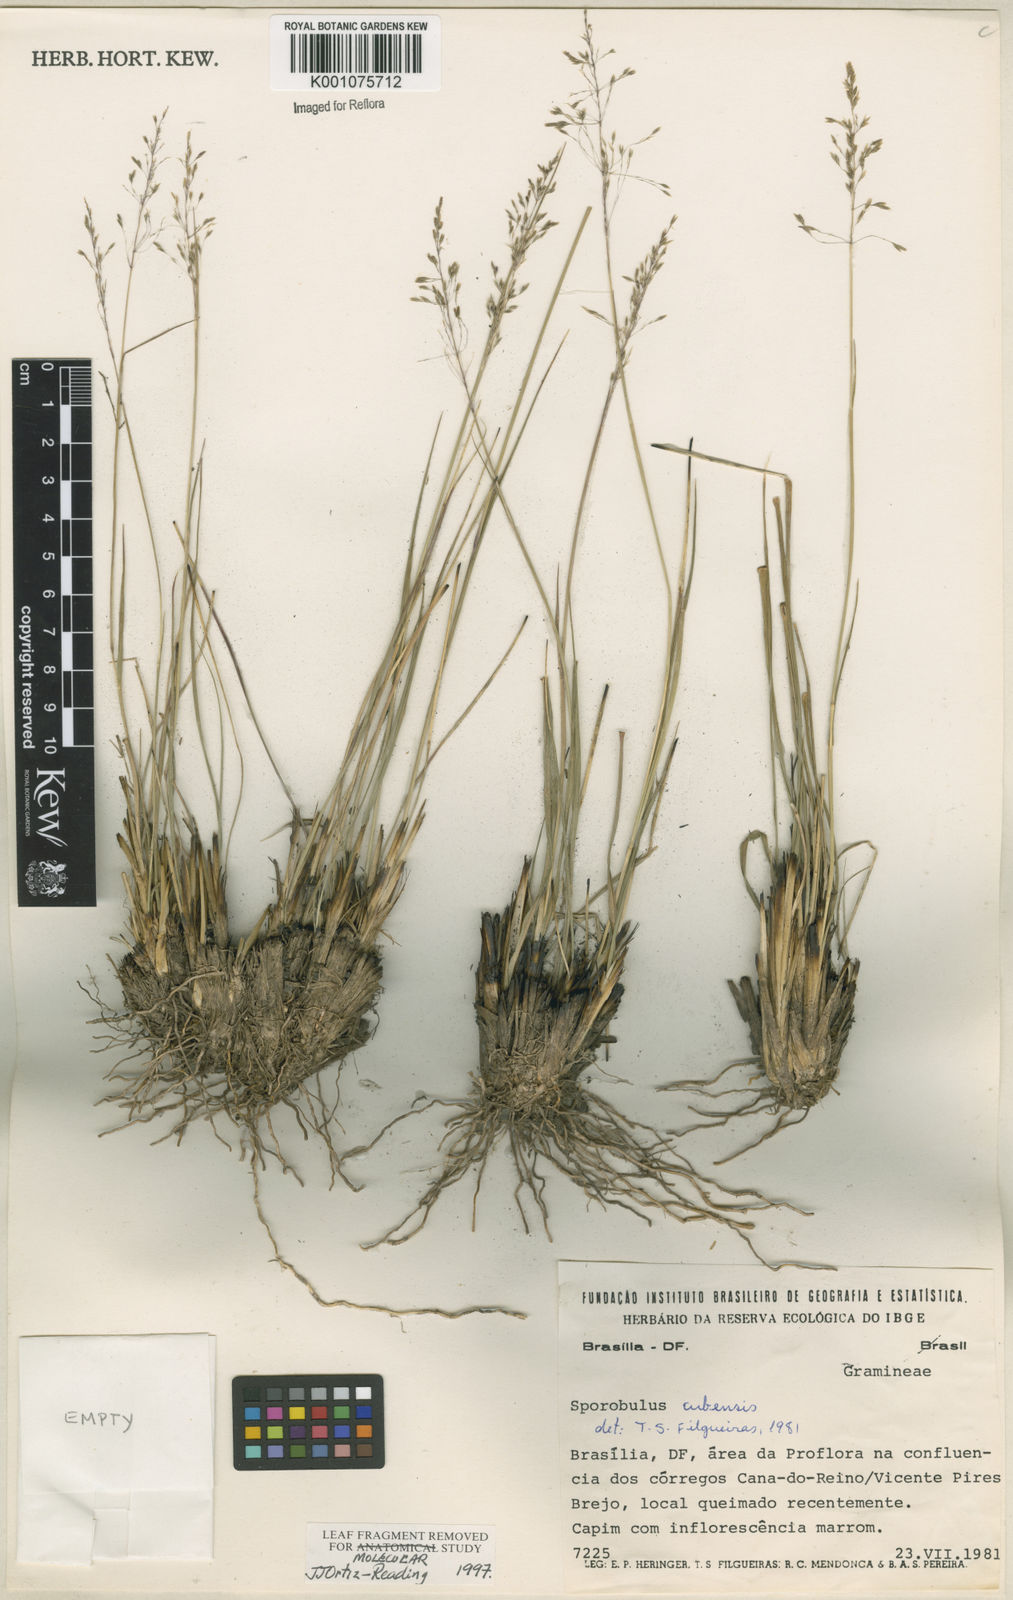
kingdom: Plantae
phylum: Tracheophyta
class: Liliopsida
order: Poales
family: Poaceae
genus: Sporobolus
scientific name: Sporobolus cubensis
